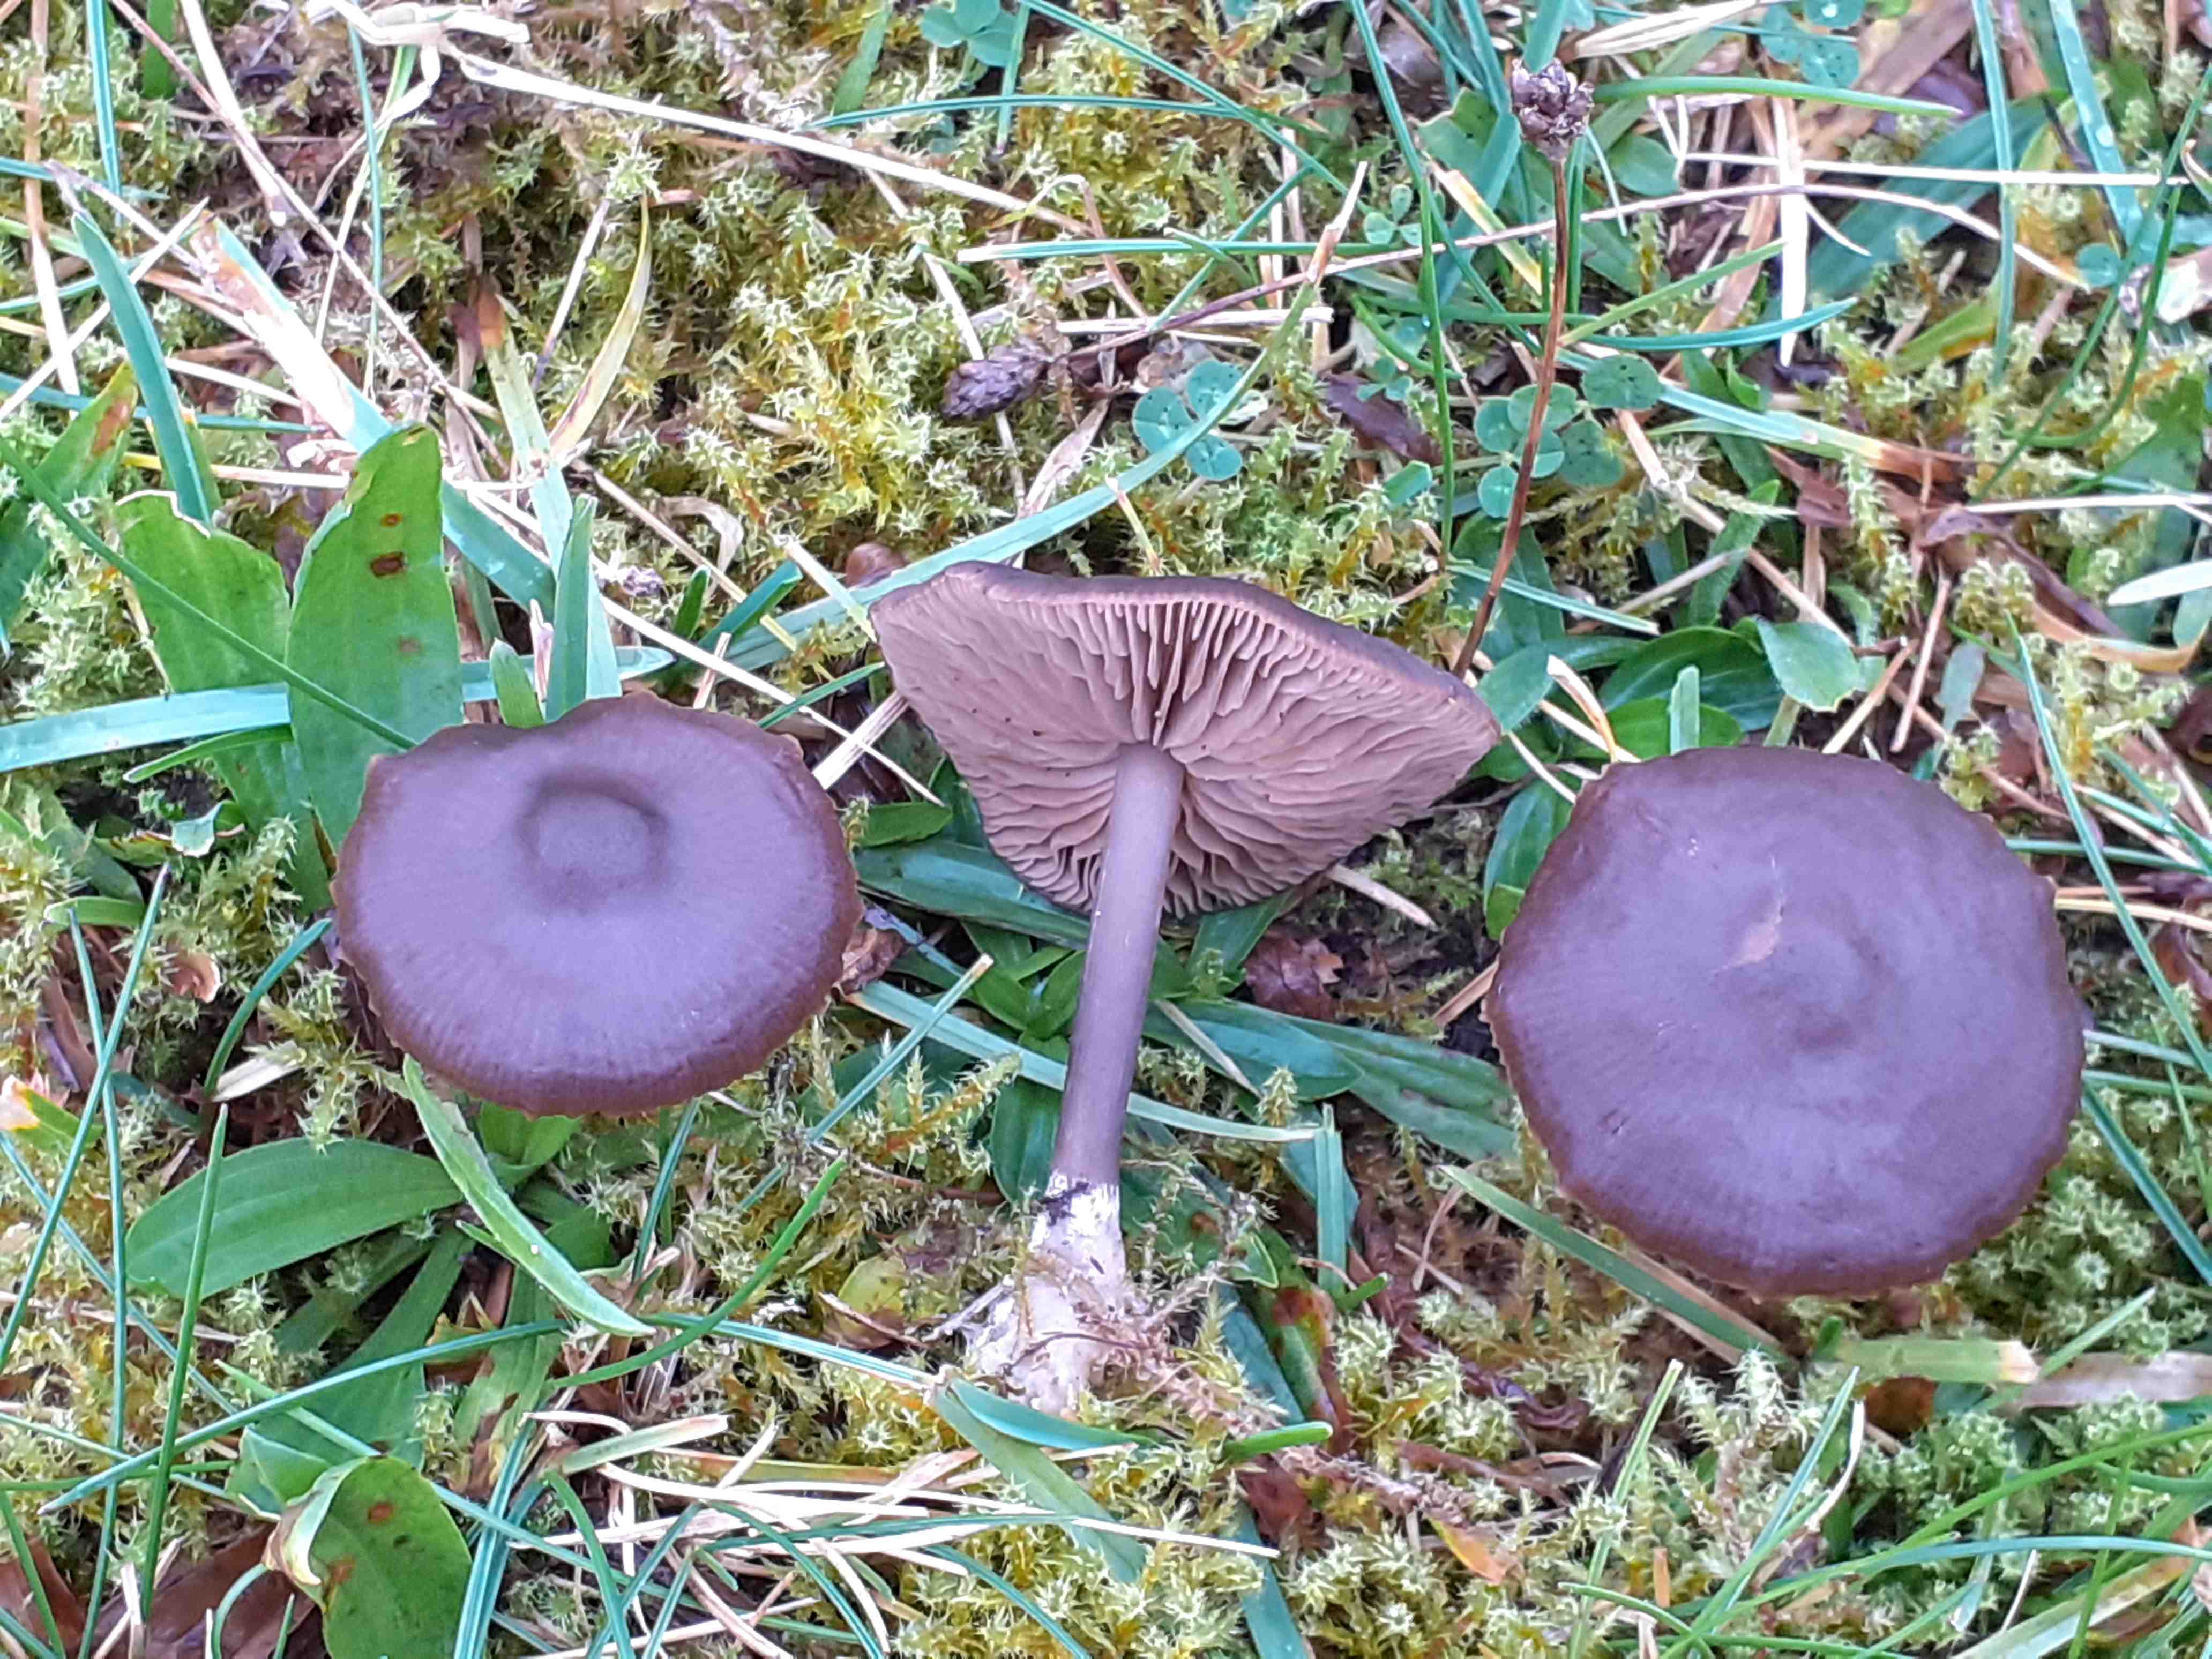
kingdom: Fungi
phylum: Basidiomycota
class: Agaricomycetes
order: Agaricales
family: Entolomataceae
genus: Entoloma
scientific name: Entoloma sericeum
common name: silkeglinsende rødblad
